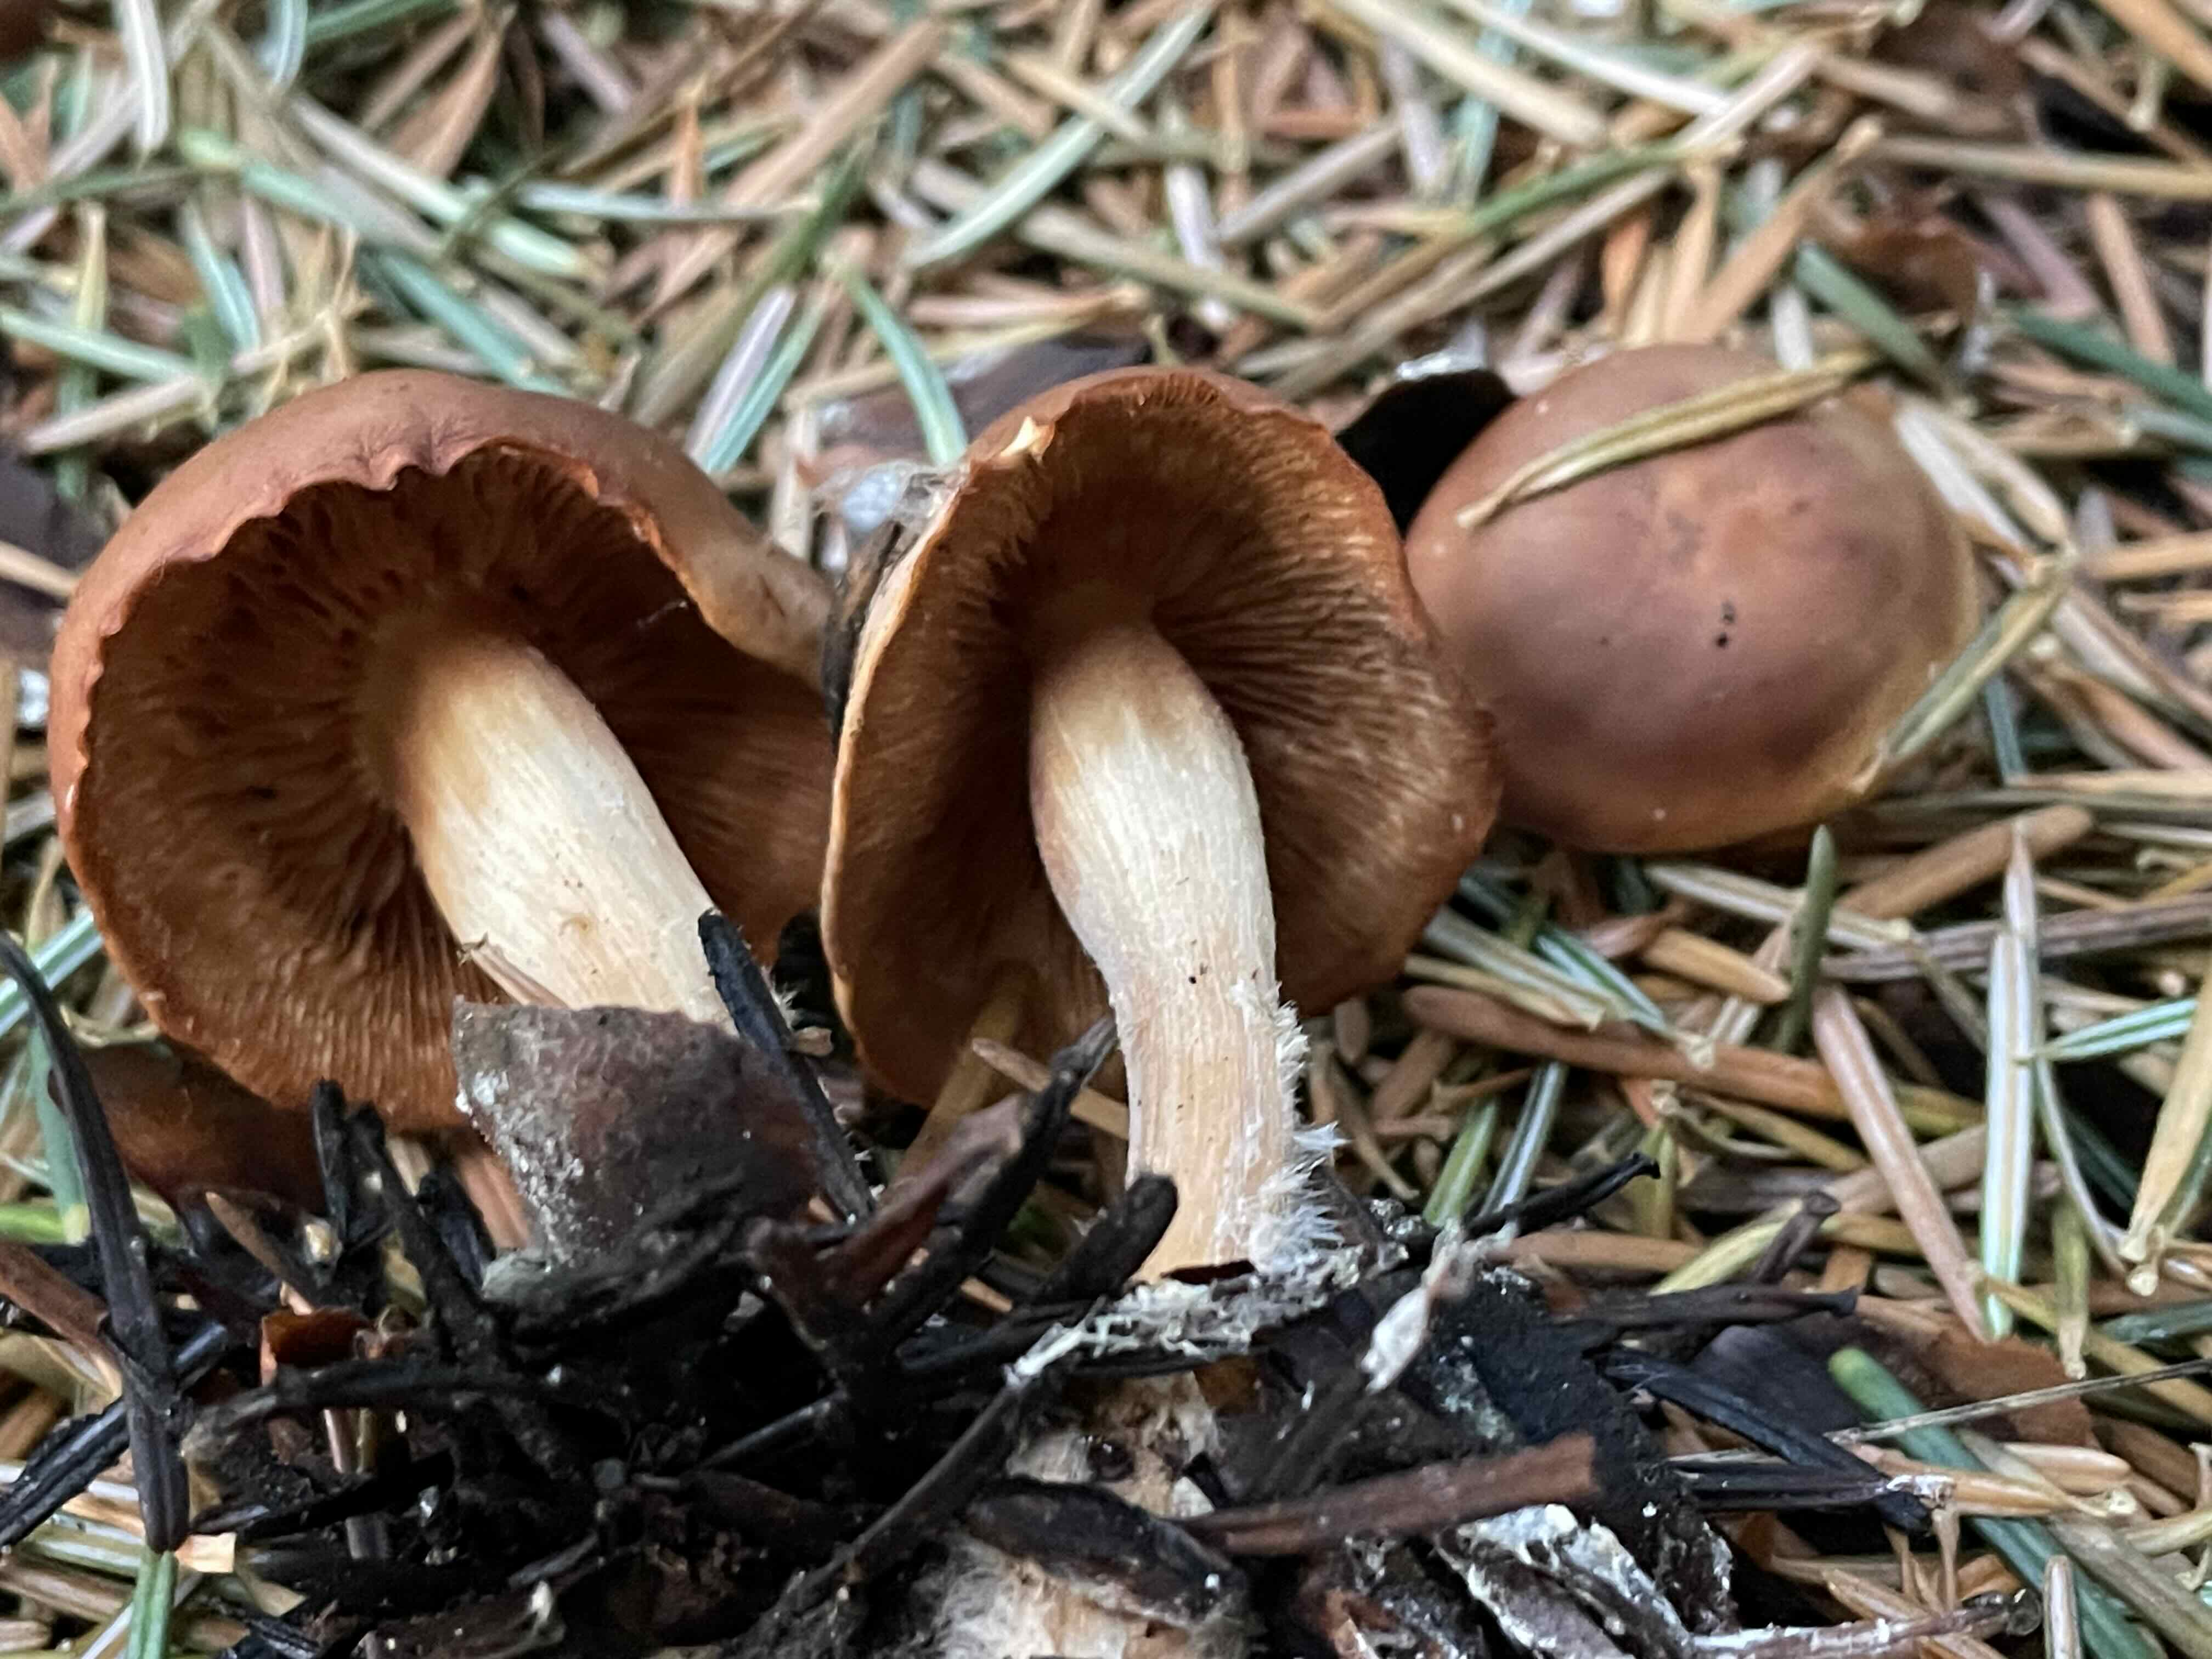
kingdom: Fungi
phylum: Basidiomycota
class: Agaricomycetes
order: Agaricales
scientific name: Agaricales
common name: champignonordenen
